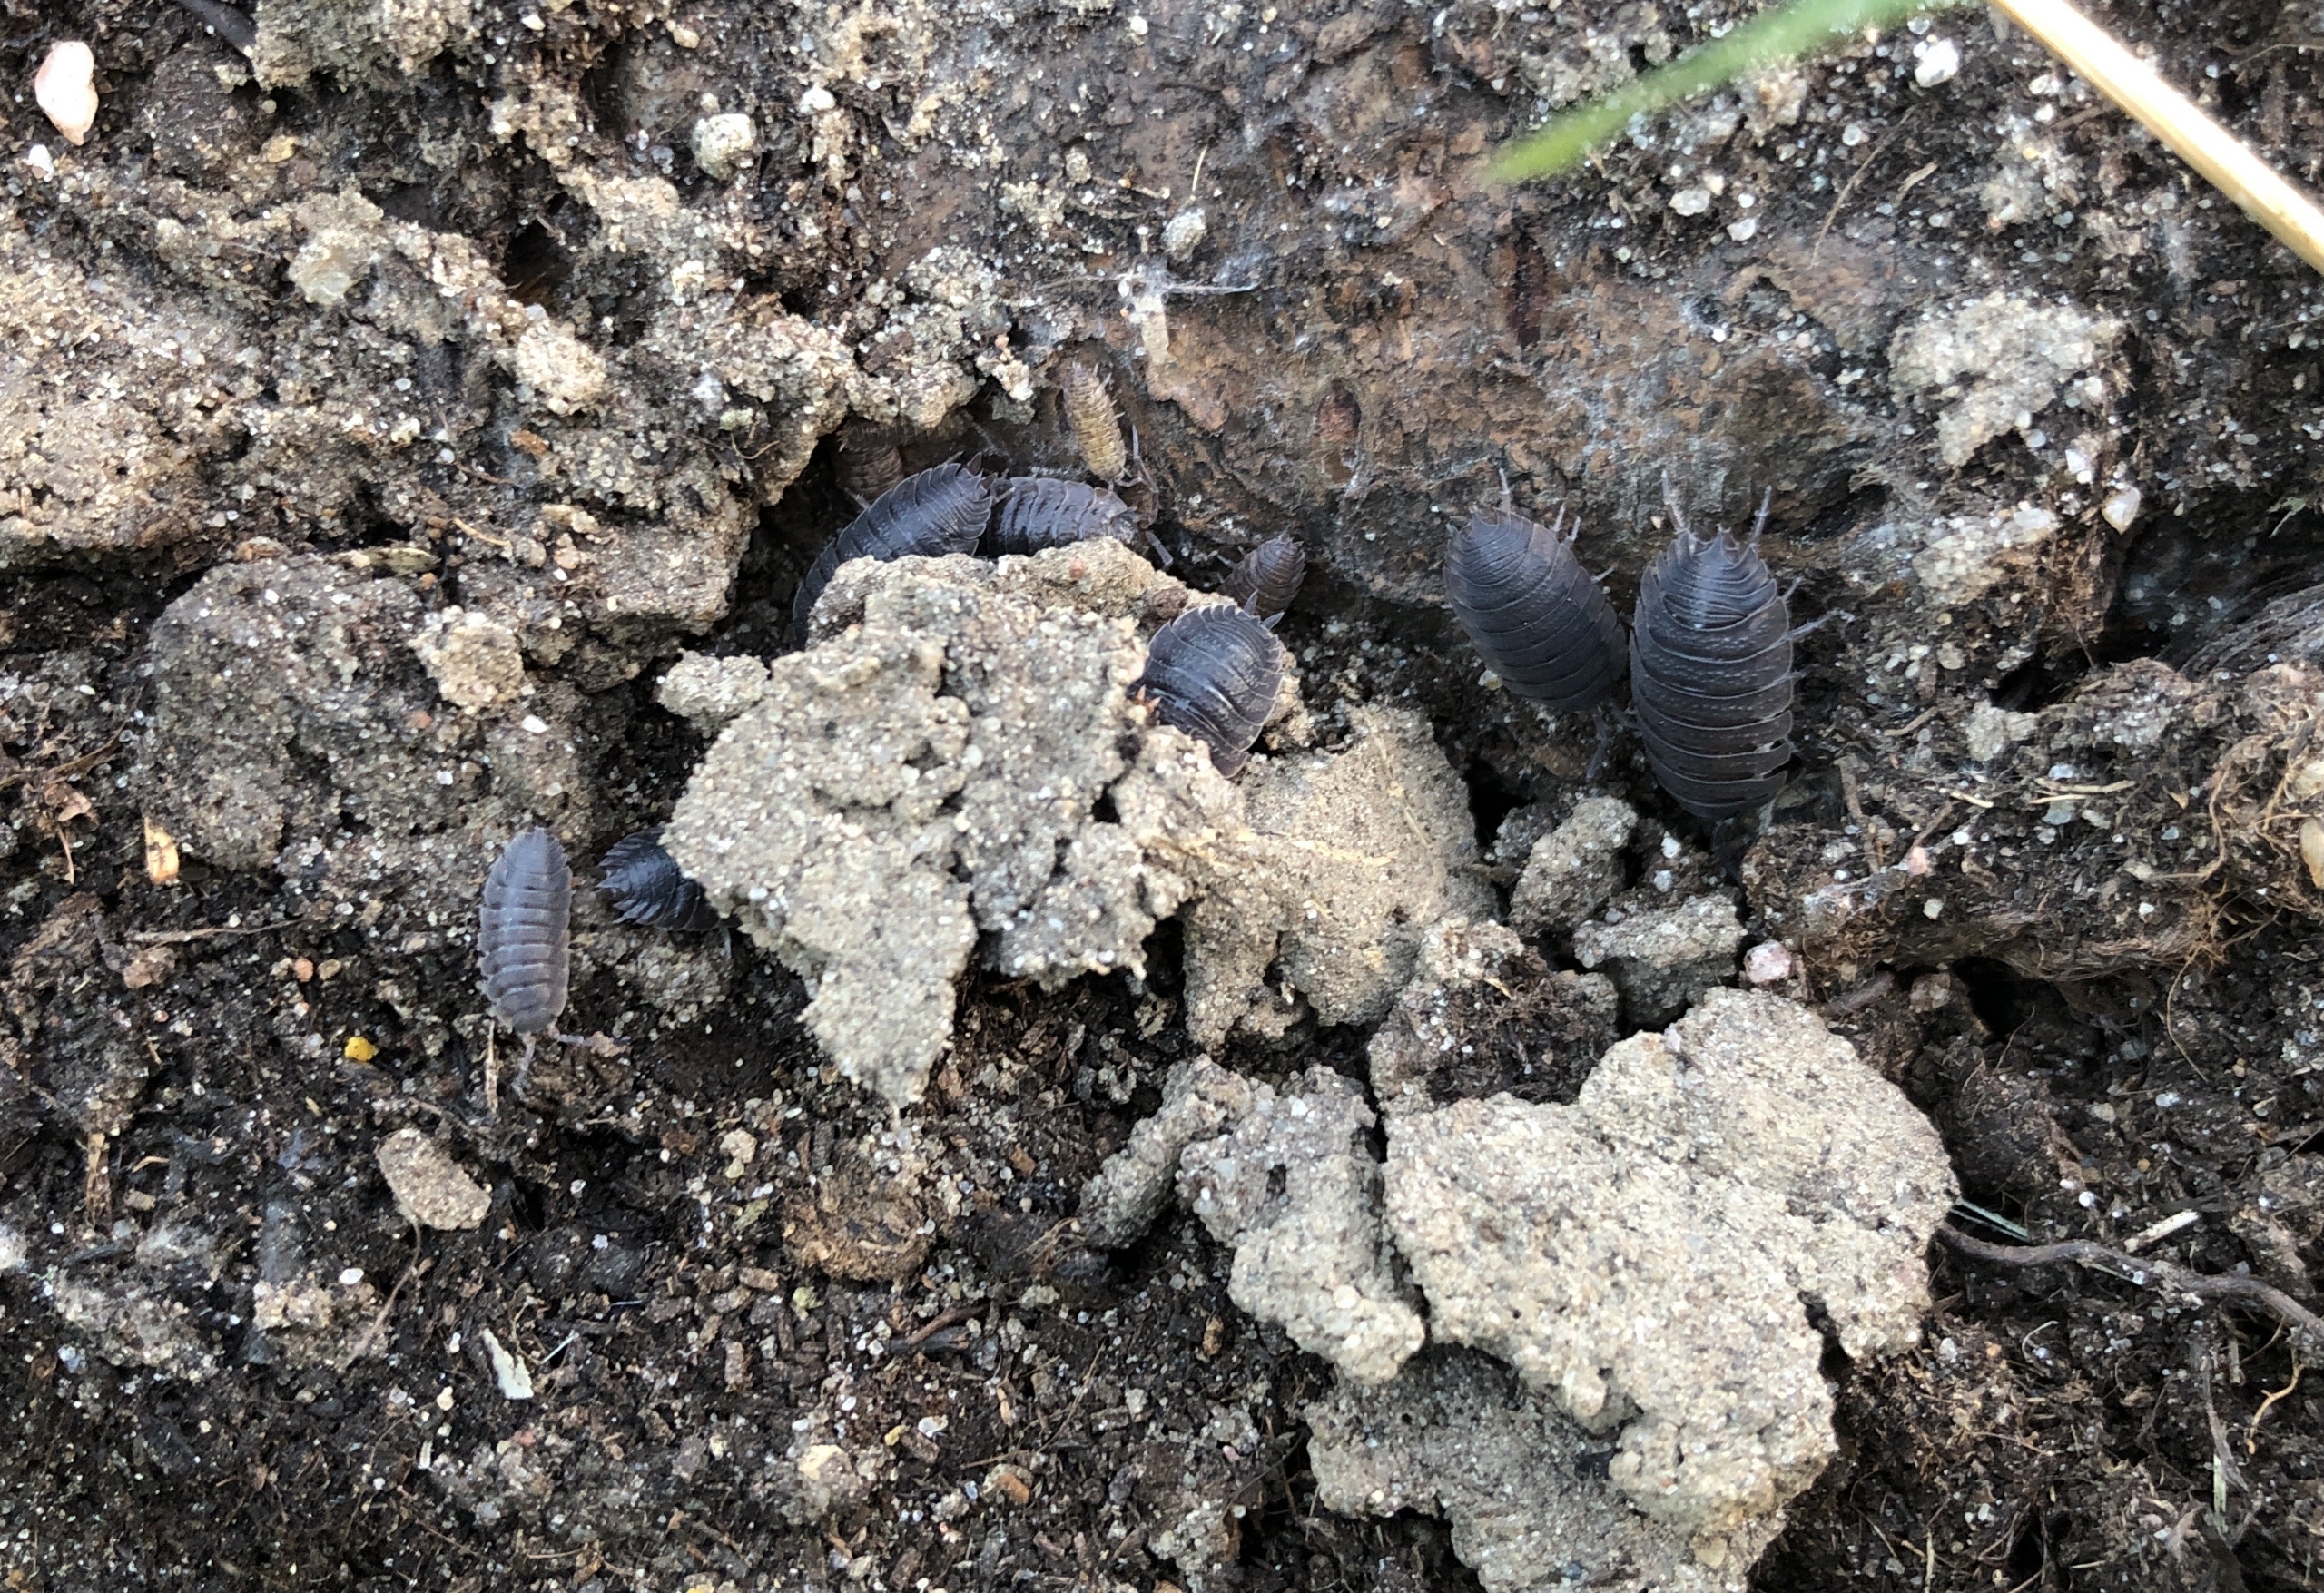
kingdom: Animalia
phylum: Arthropoda
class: Malacostraca
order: Isopoda
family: Porcellionidae
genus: Porcellio
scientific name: Porcellio scaber
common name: Grå bænkebider
